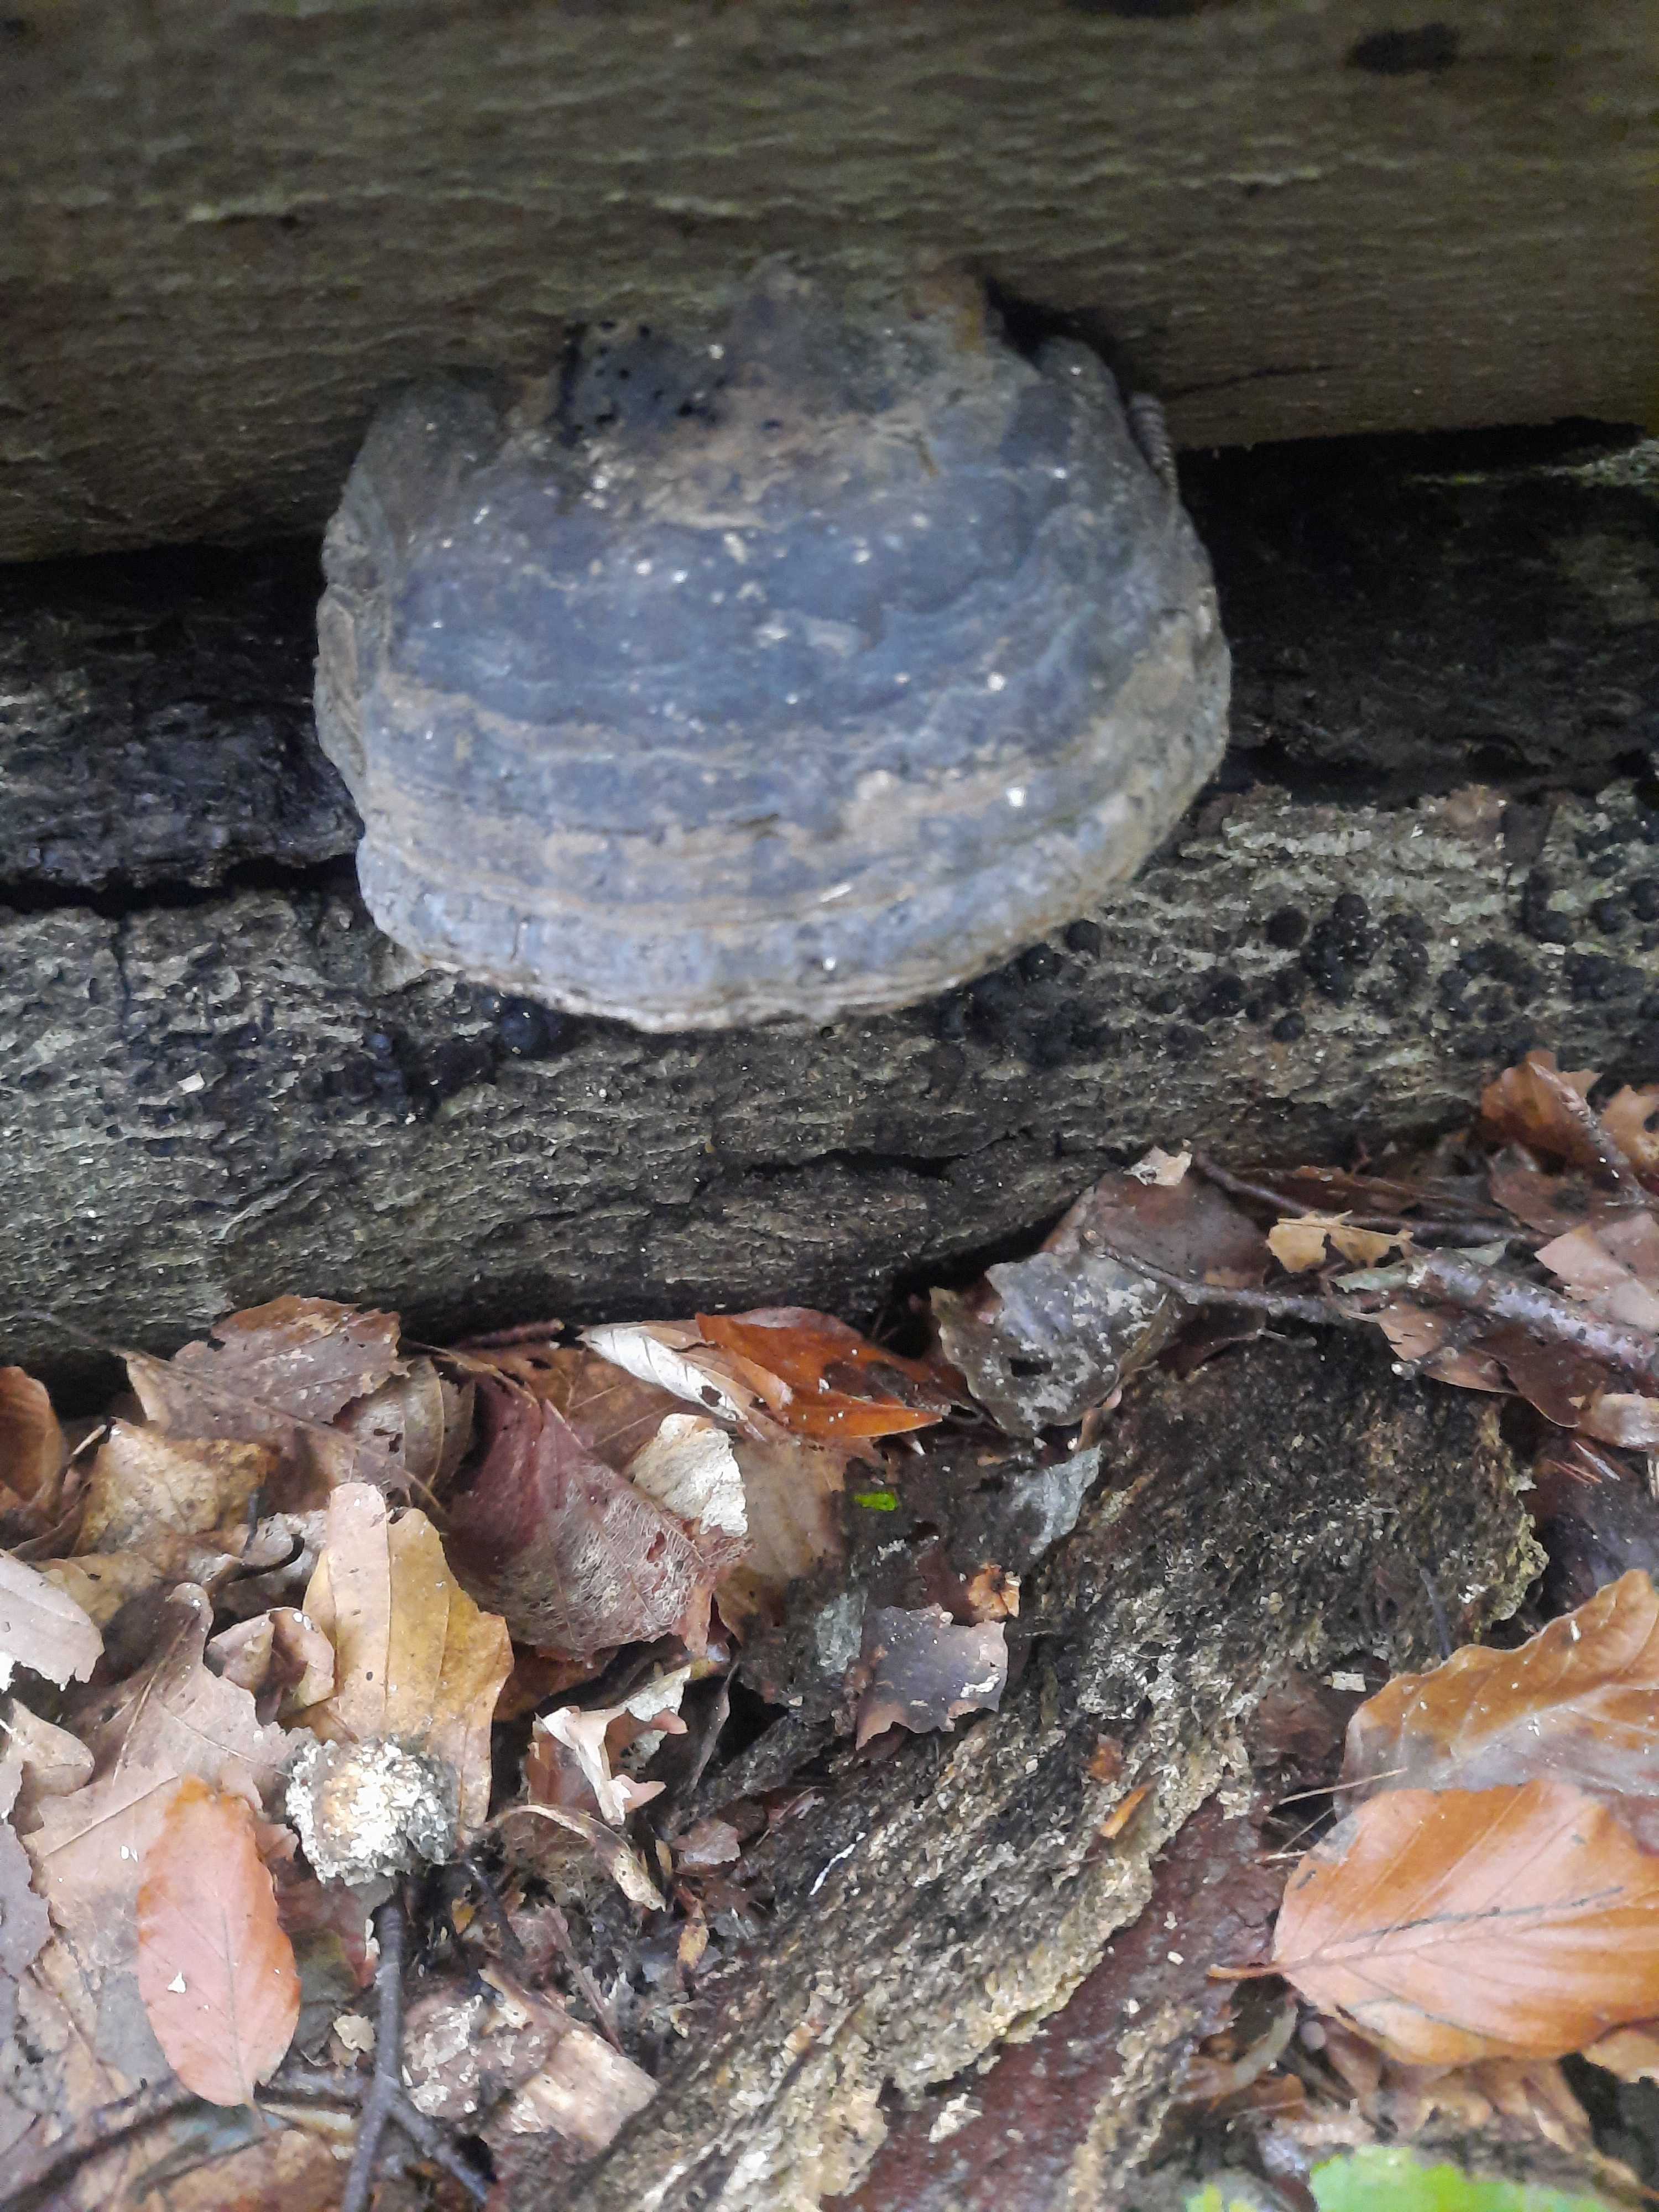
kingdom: Fungi
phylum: Basidiomycota
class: Agaricomycetes
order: Polyporales
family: Polyporaceae
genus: Fomes
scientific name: Fomes fomentarius
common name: tøndersvamp
